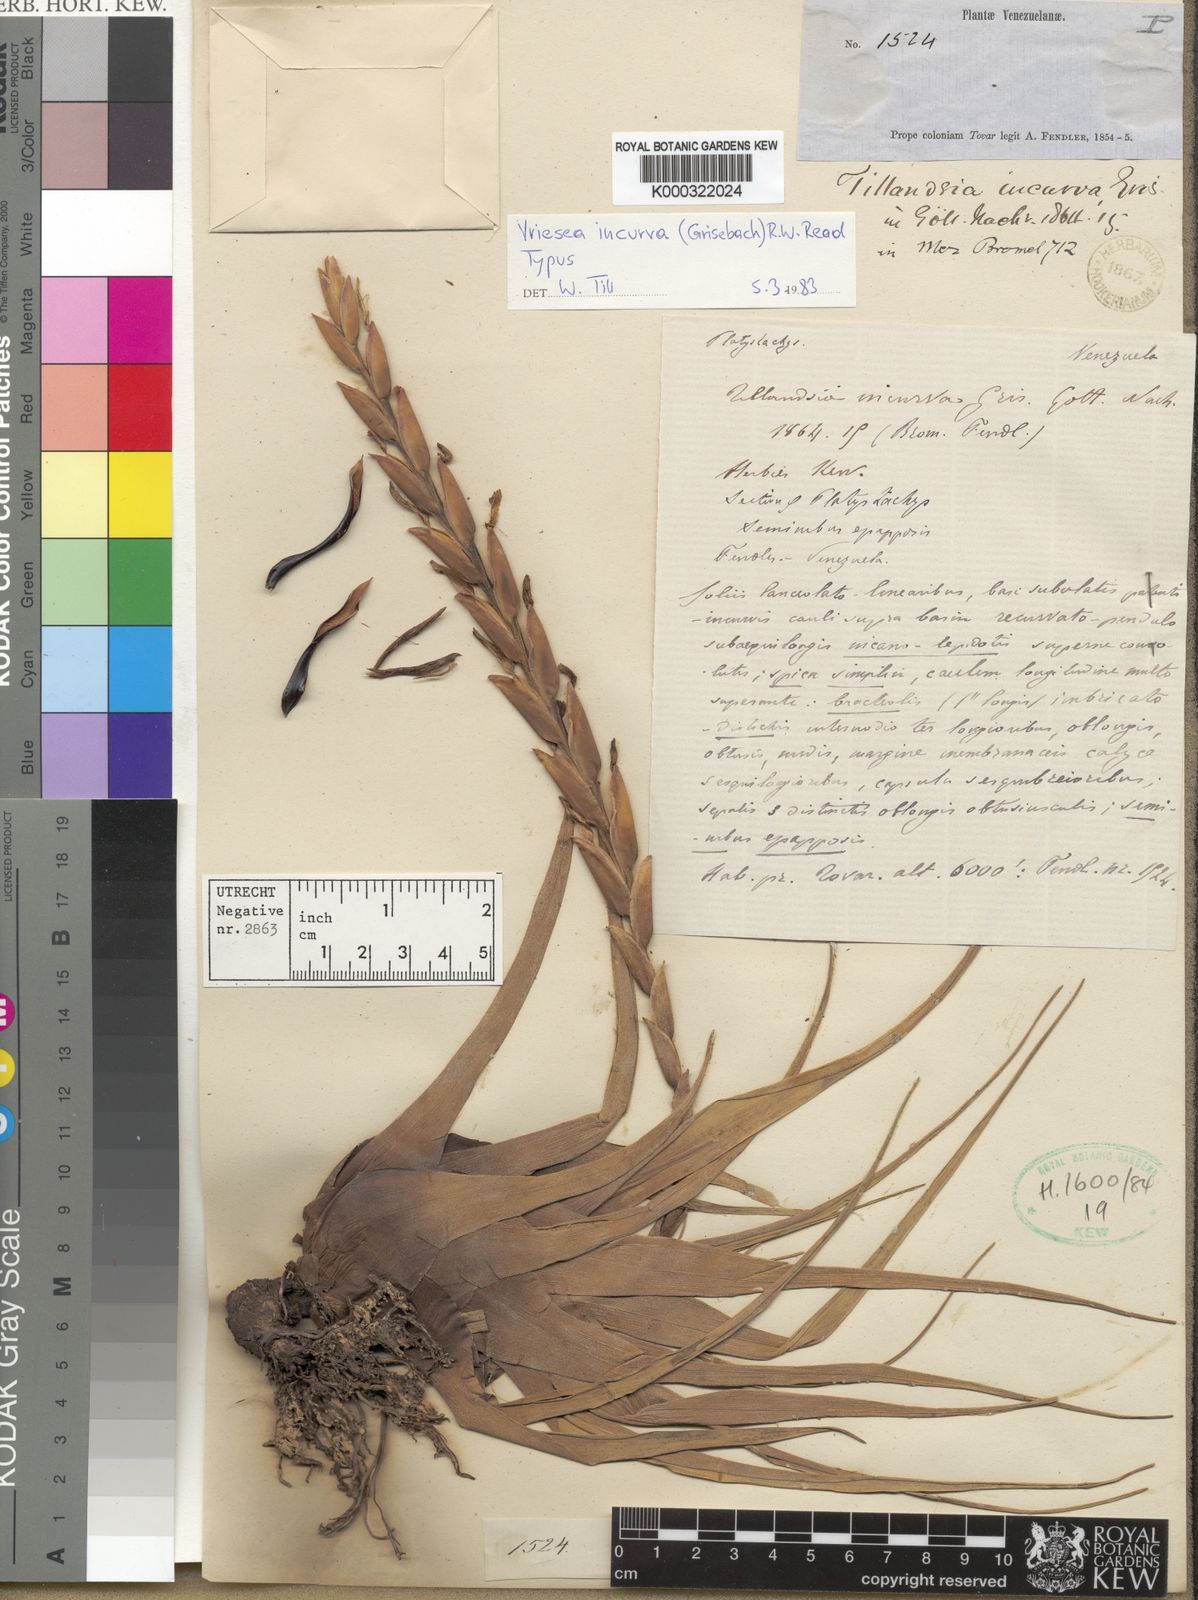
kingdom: Plantae
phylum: Tracheophyta
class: Liliopsida
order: Poales
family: Bromeliaceae
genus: Vriesea
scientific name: Vriesea incurva
